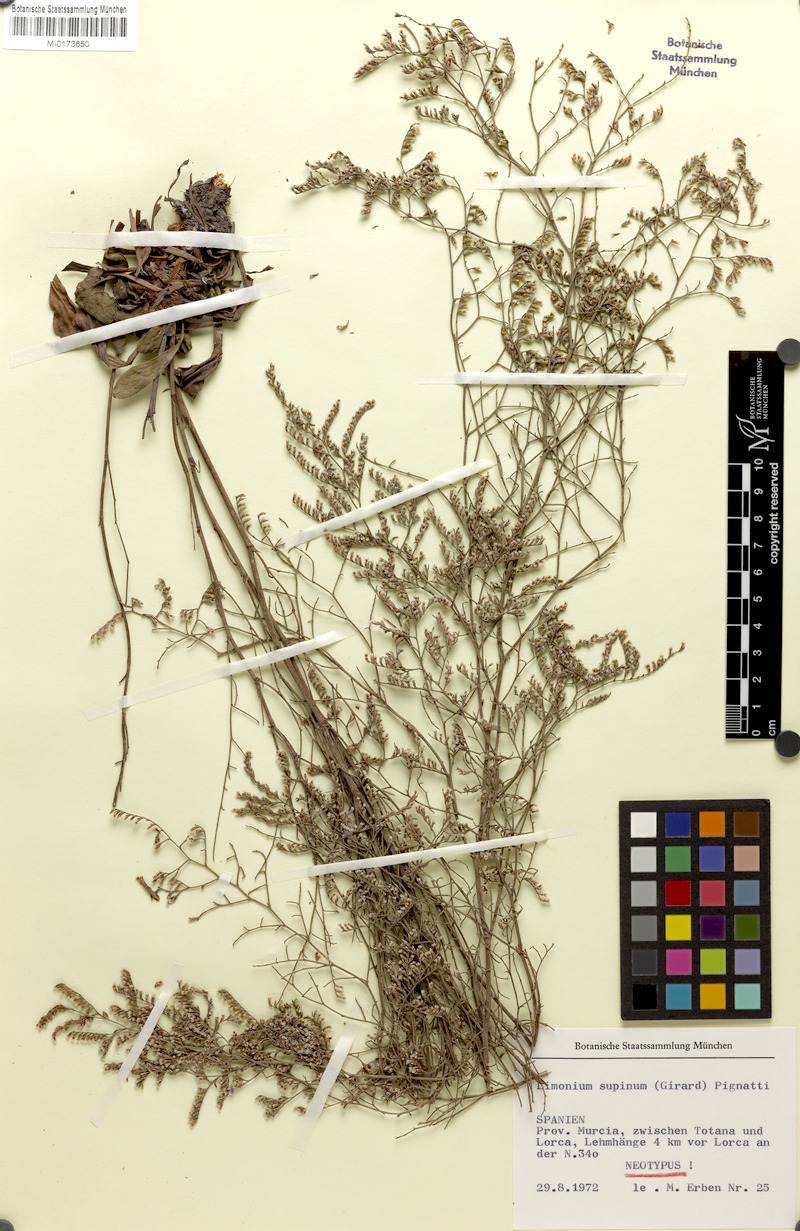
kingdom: Plantae
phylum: Tracheophyta
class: Magnoliopsida
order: Caryophyllales
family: Plumbaginaceae
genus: Limonium
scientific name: Limonium supinum
